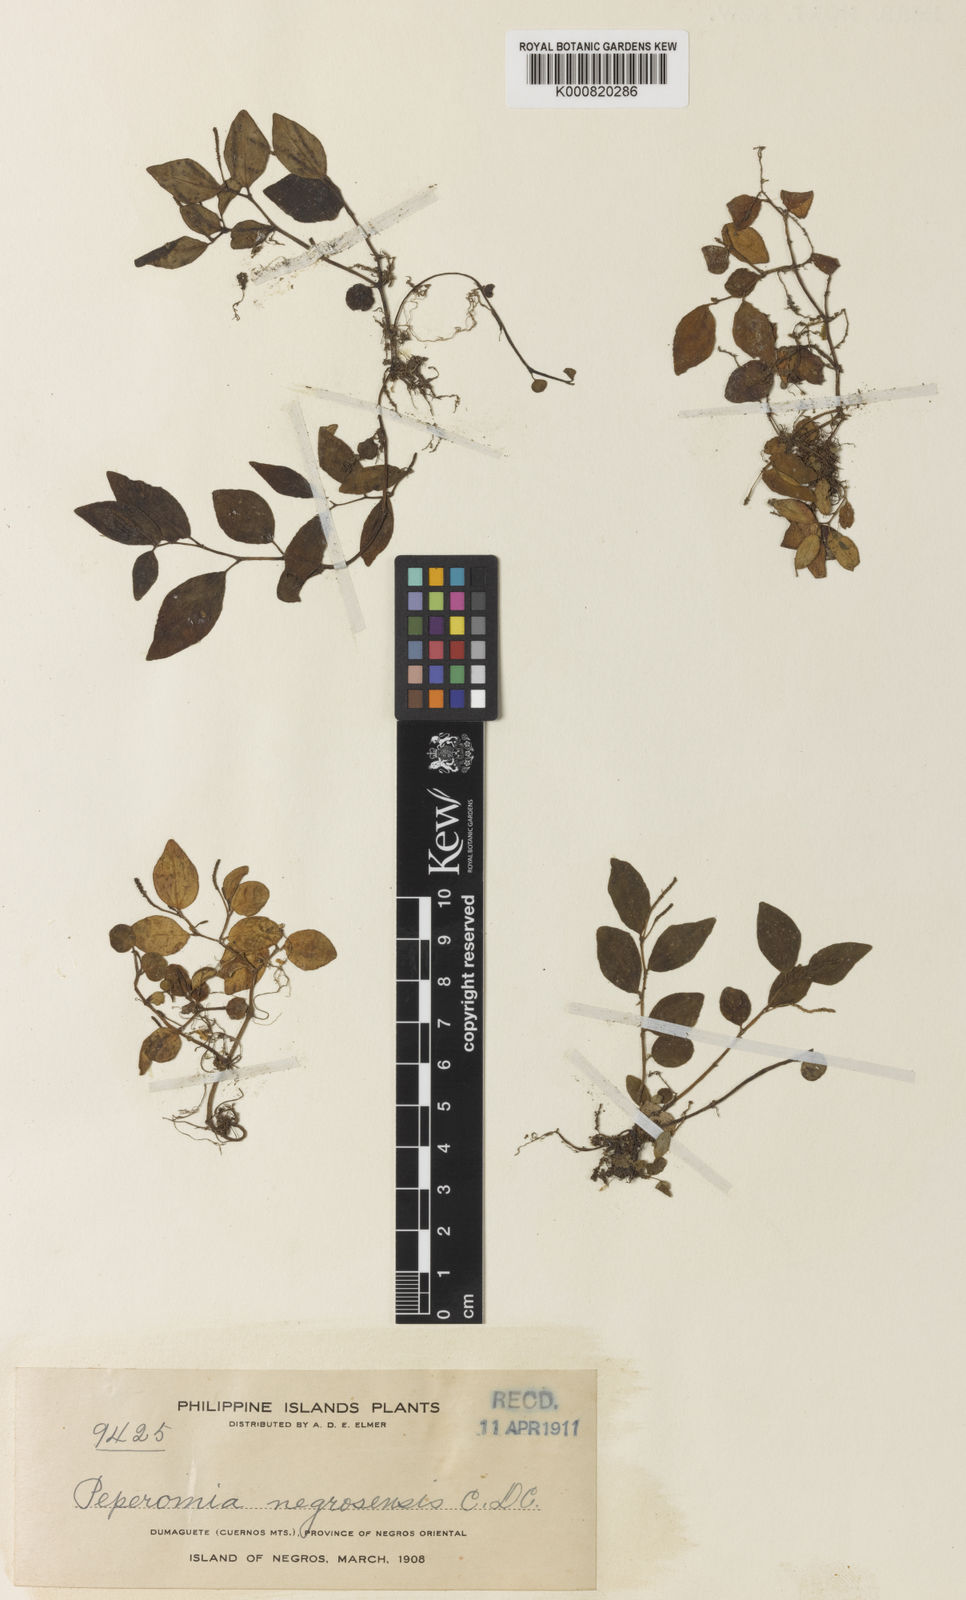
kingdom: Plantae
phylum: Tracheophyta
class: Magnoliopsida
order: Piperales
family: Piperaceae
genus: Peperomia
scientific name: Peperomia negrosensis
